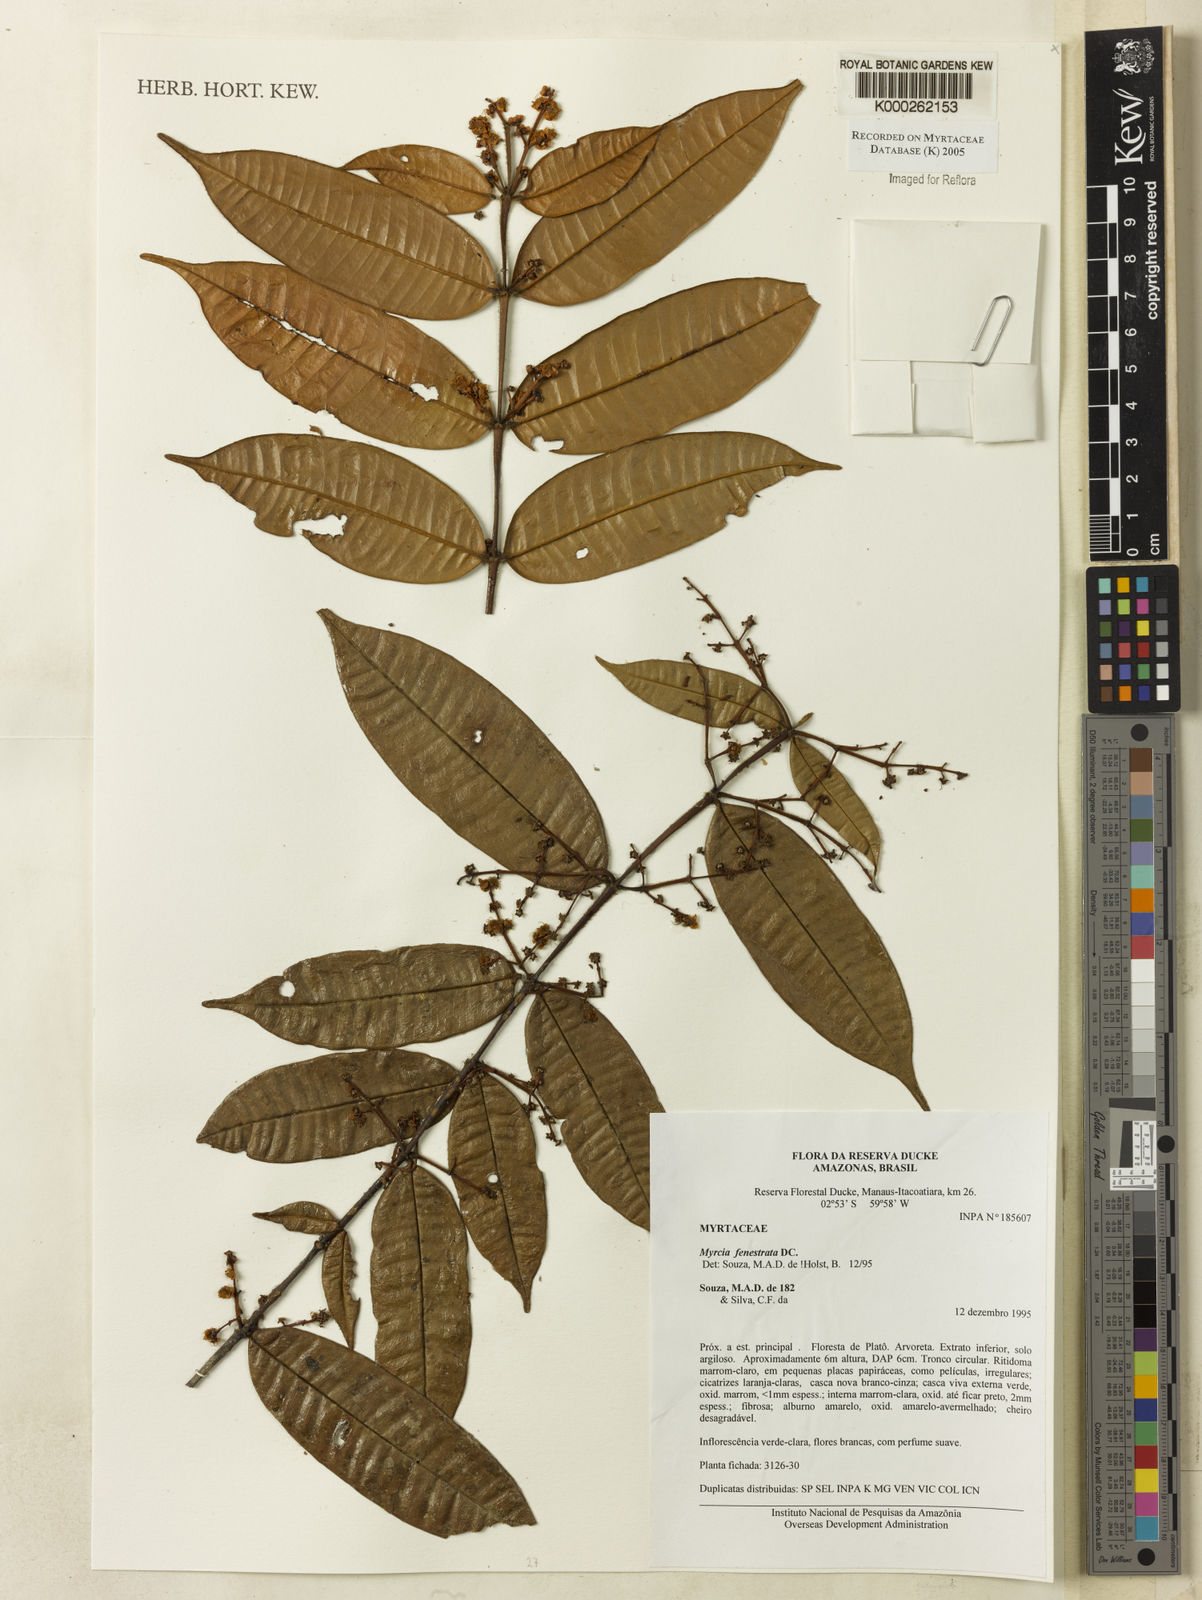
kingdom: Plantae
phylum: Tracheophyta
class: Magnoliopsida
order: Myrtales
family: Myrtaceae
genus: Myrcia
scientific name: Myrcia fenestrata
